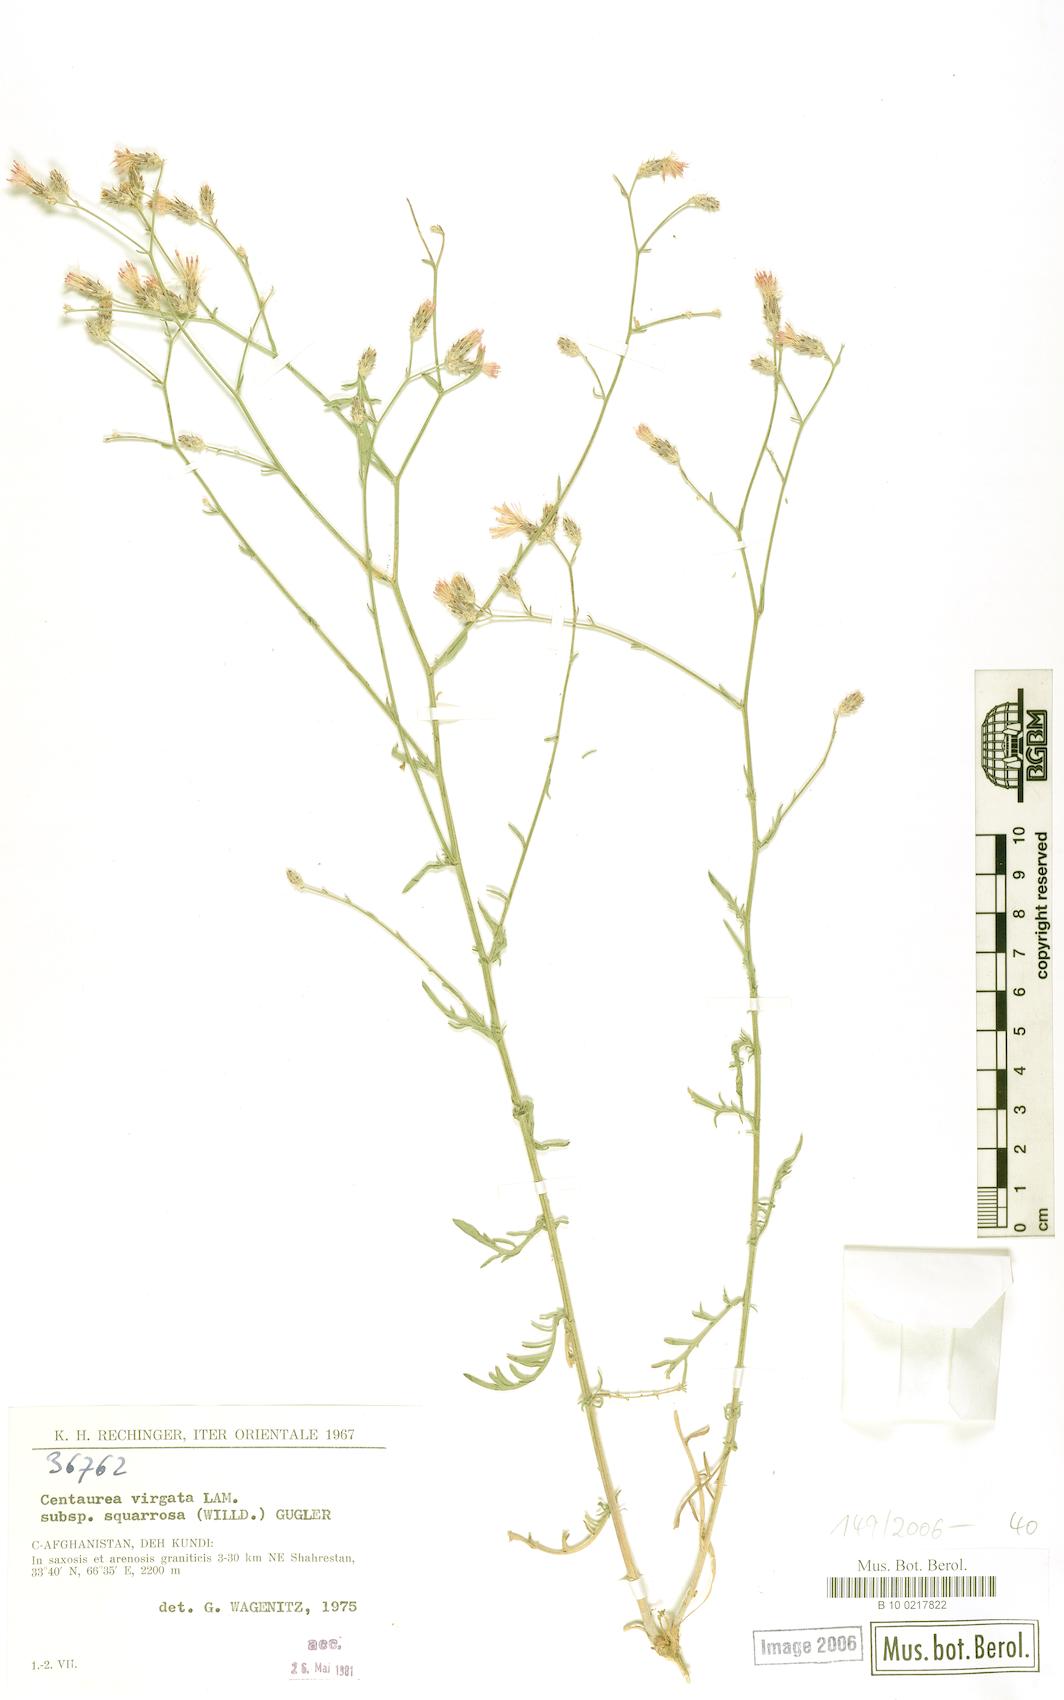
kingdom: Plantae
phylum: Tracheophyta
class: Magnoliopsida
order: Asterales
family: Asteraceae
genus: Centaurea
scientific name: Centaurea virgata
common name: Squarrose knapweed
